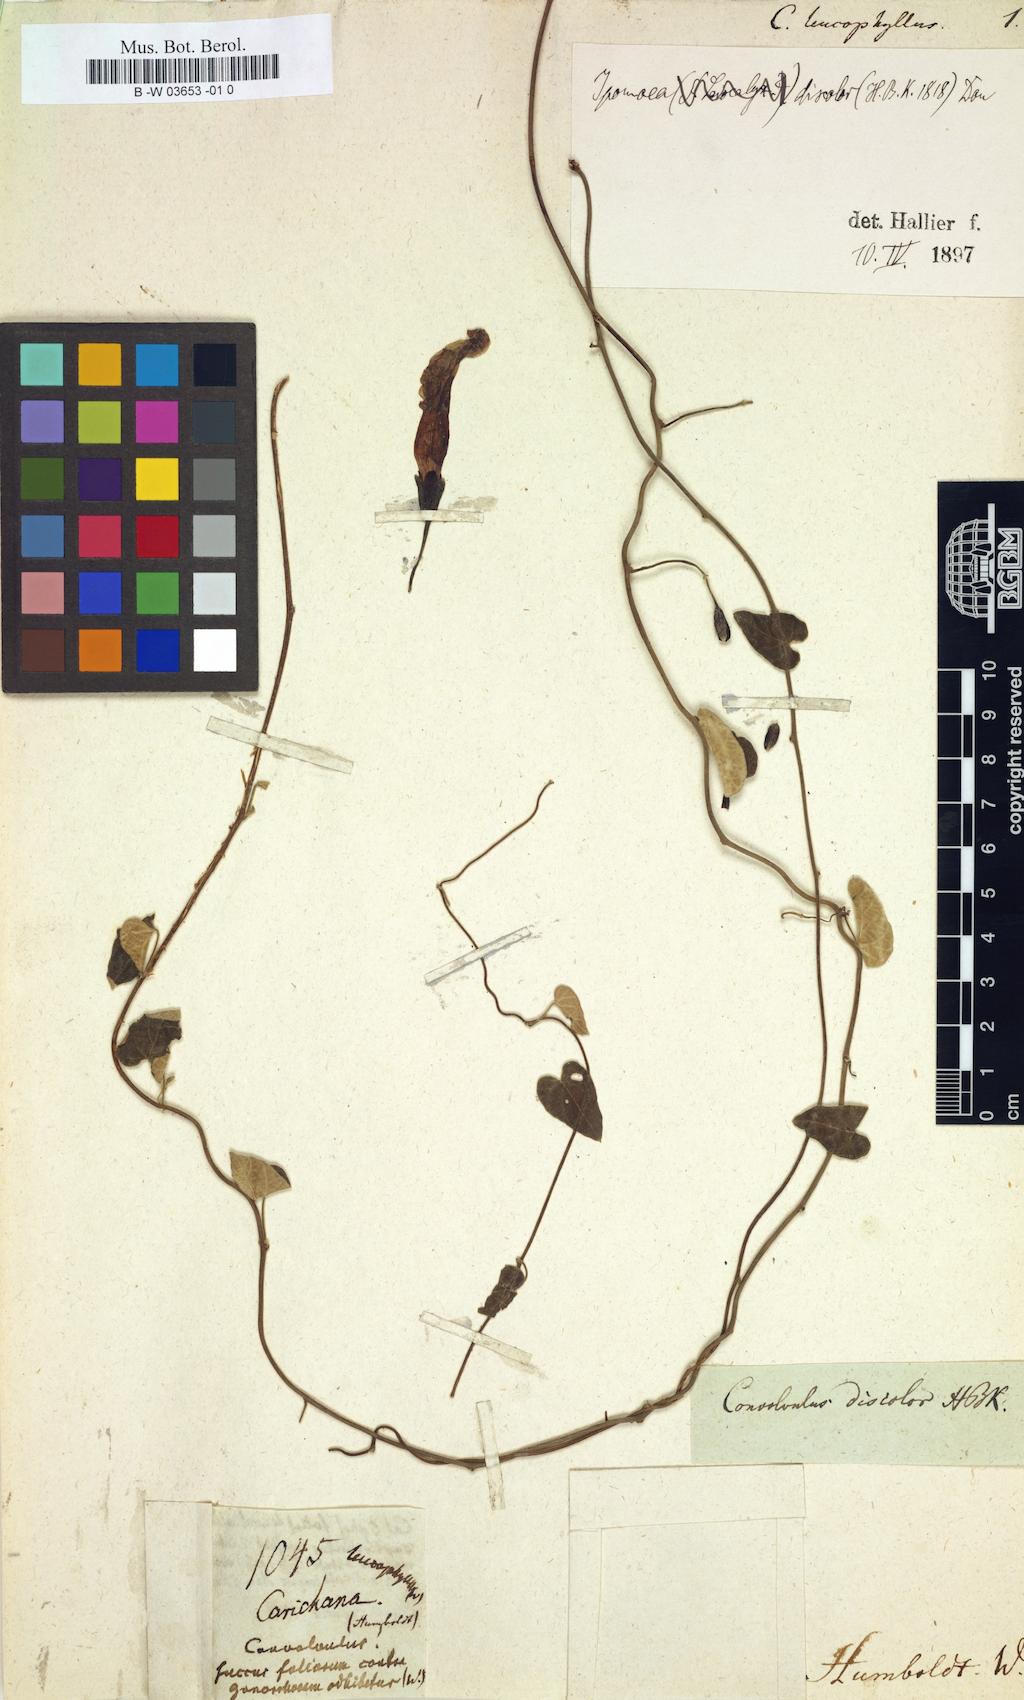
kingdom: Plantae
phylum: Tracheophyta
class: Magnoliopsida
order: Solanales
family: Convolvulaceae
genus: Convolvulus
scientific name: Convolvulus leucophyllus
